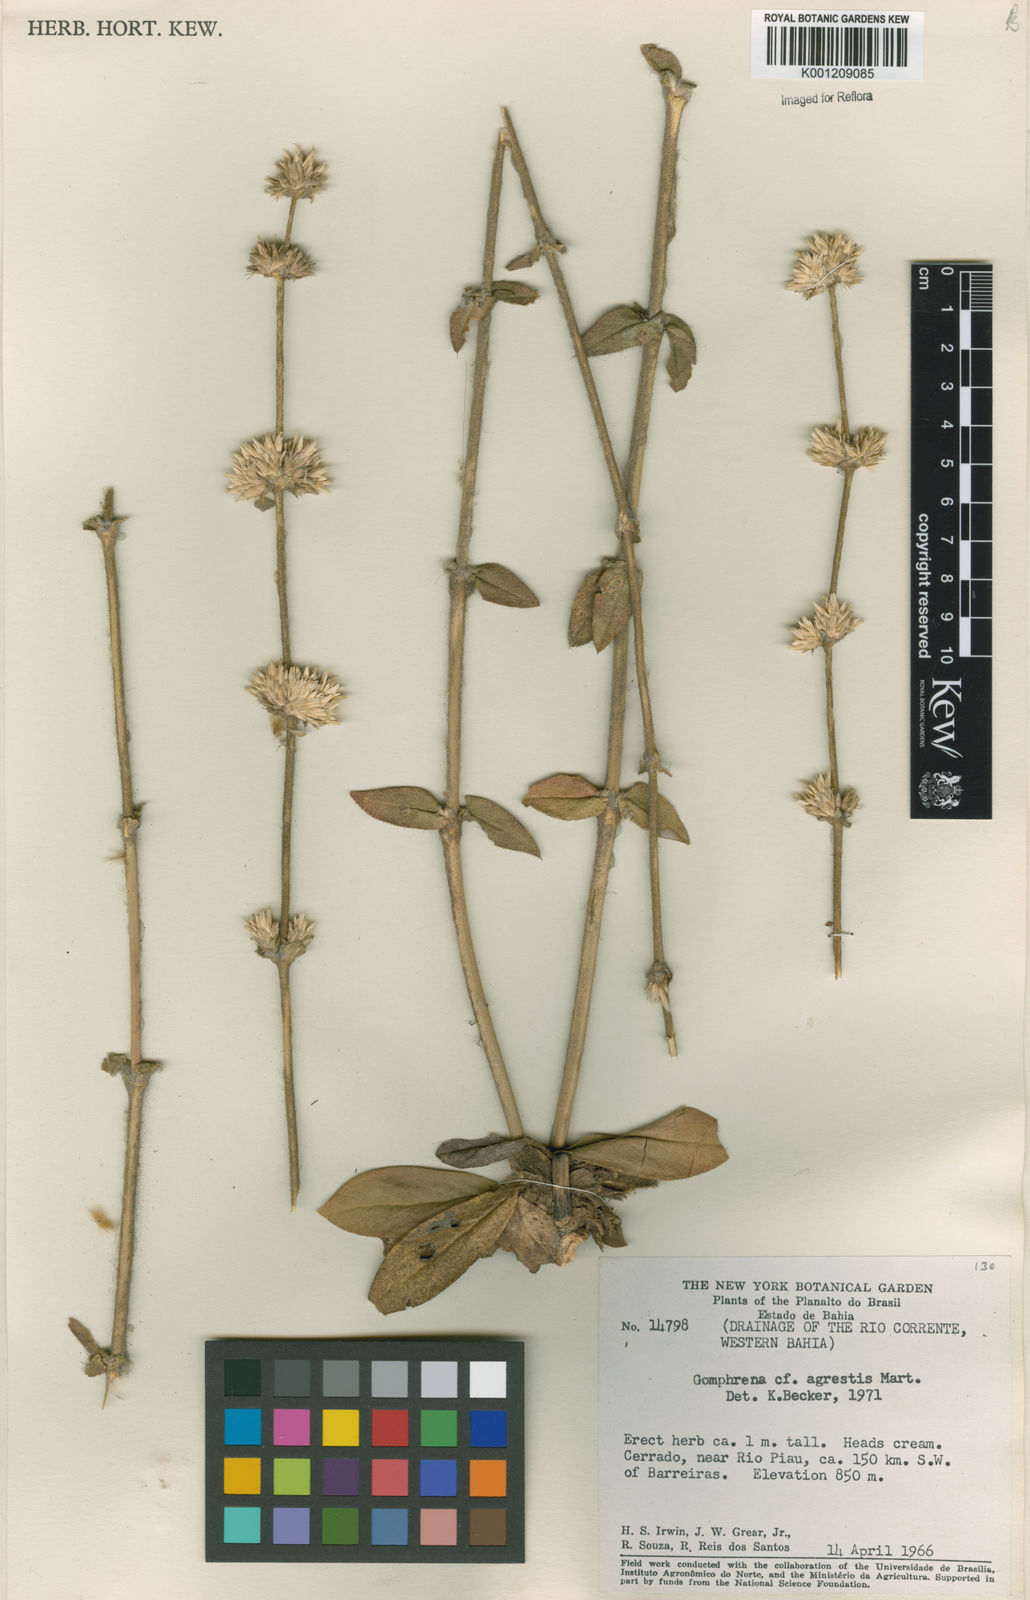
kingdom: Plantae
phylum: Tracheophyta
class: Magnoliopsida
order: Caryophyllales
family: Amaranthaceae
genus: Gomphrena
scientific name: Gomphrena agrestis
